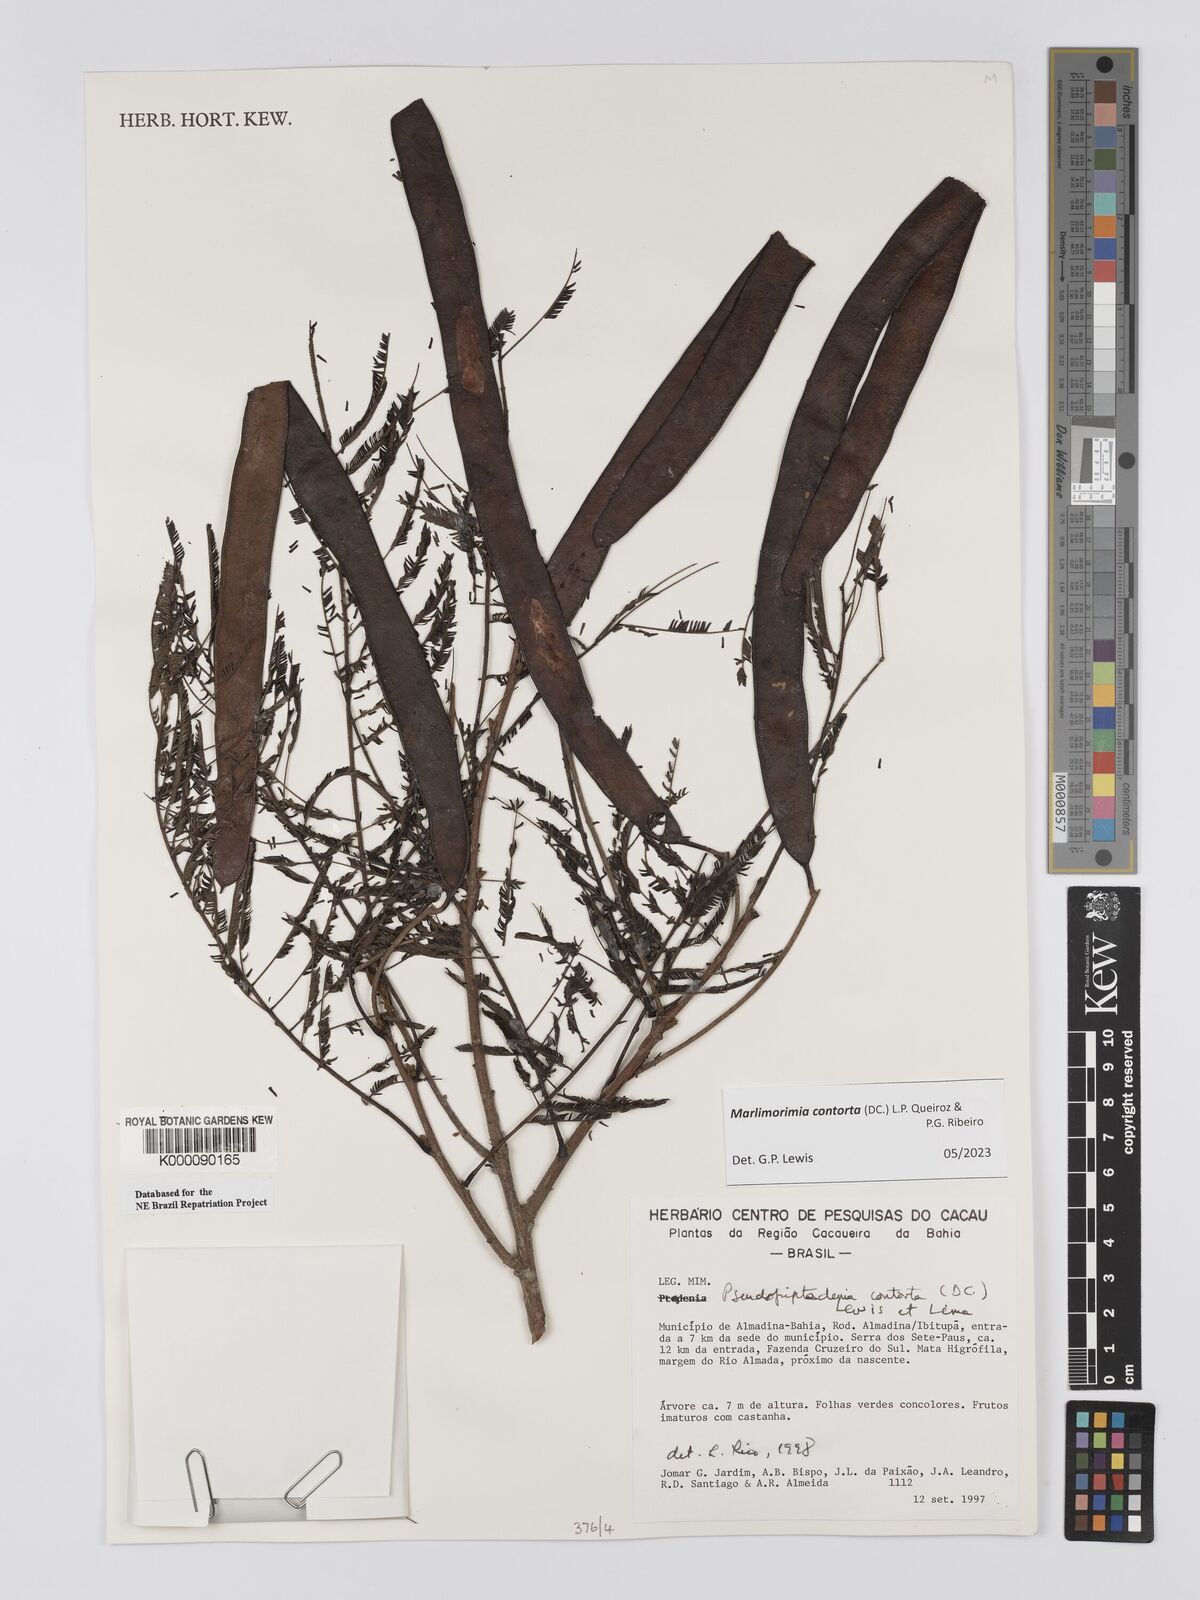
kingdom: Plantae
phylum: Tracheophyta
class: Magnoliopsida
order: Fabales
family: Fabaceae
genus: Pseudopiptadenia
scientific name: Pseudopiptadenia contorta
